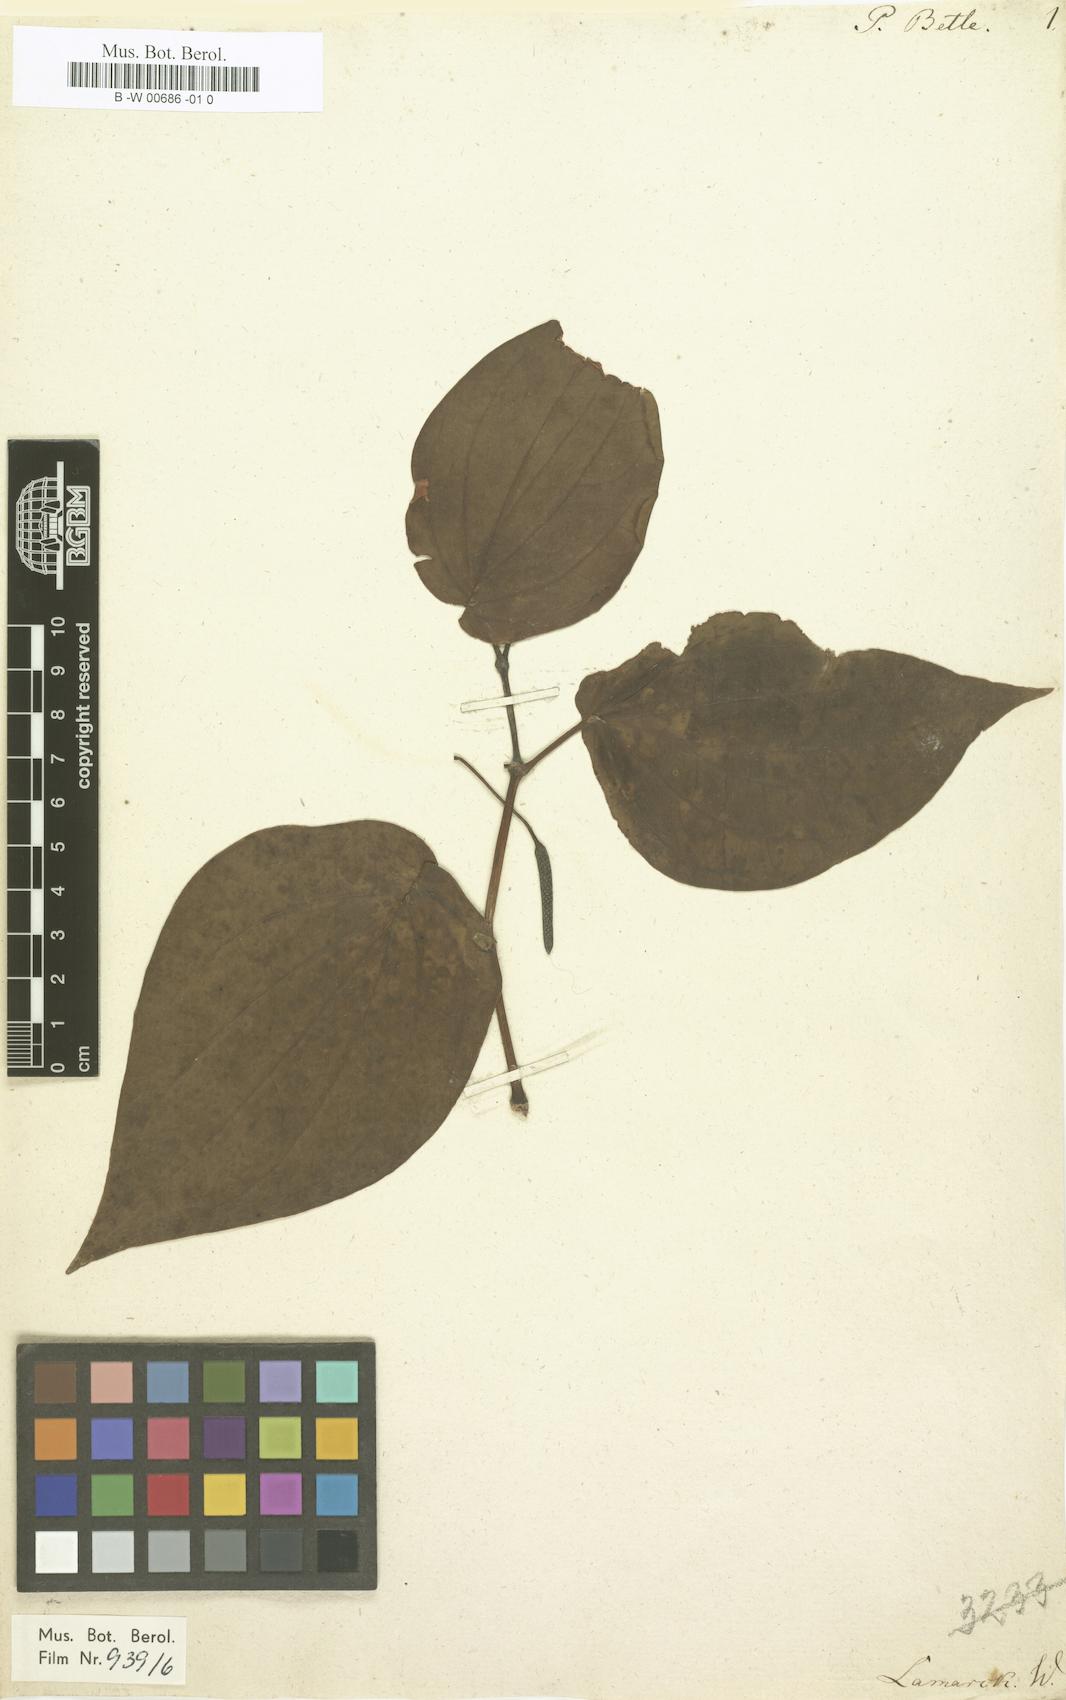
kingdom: Plantae
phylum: Tracheophyta
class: Magnoliopsida
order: Piperales
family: Piperaceae
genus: Piper
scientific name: Piper betle
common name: Betel pepper
